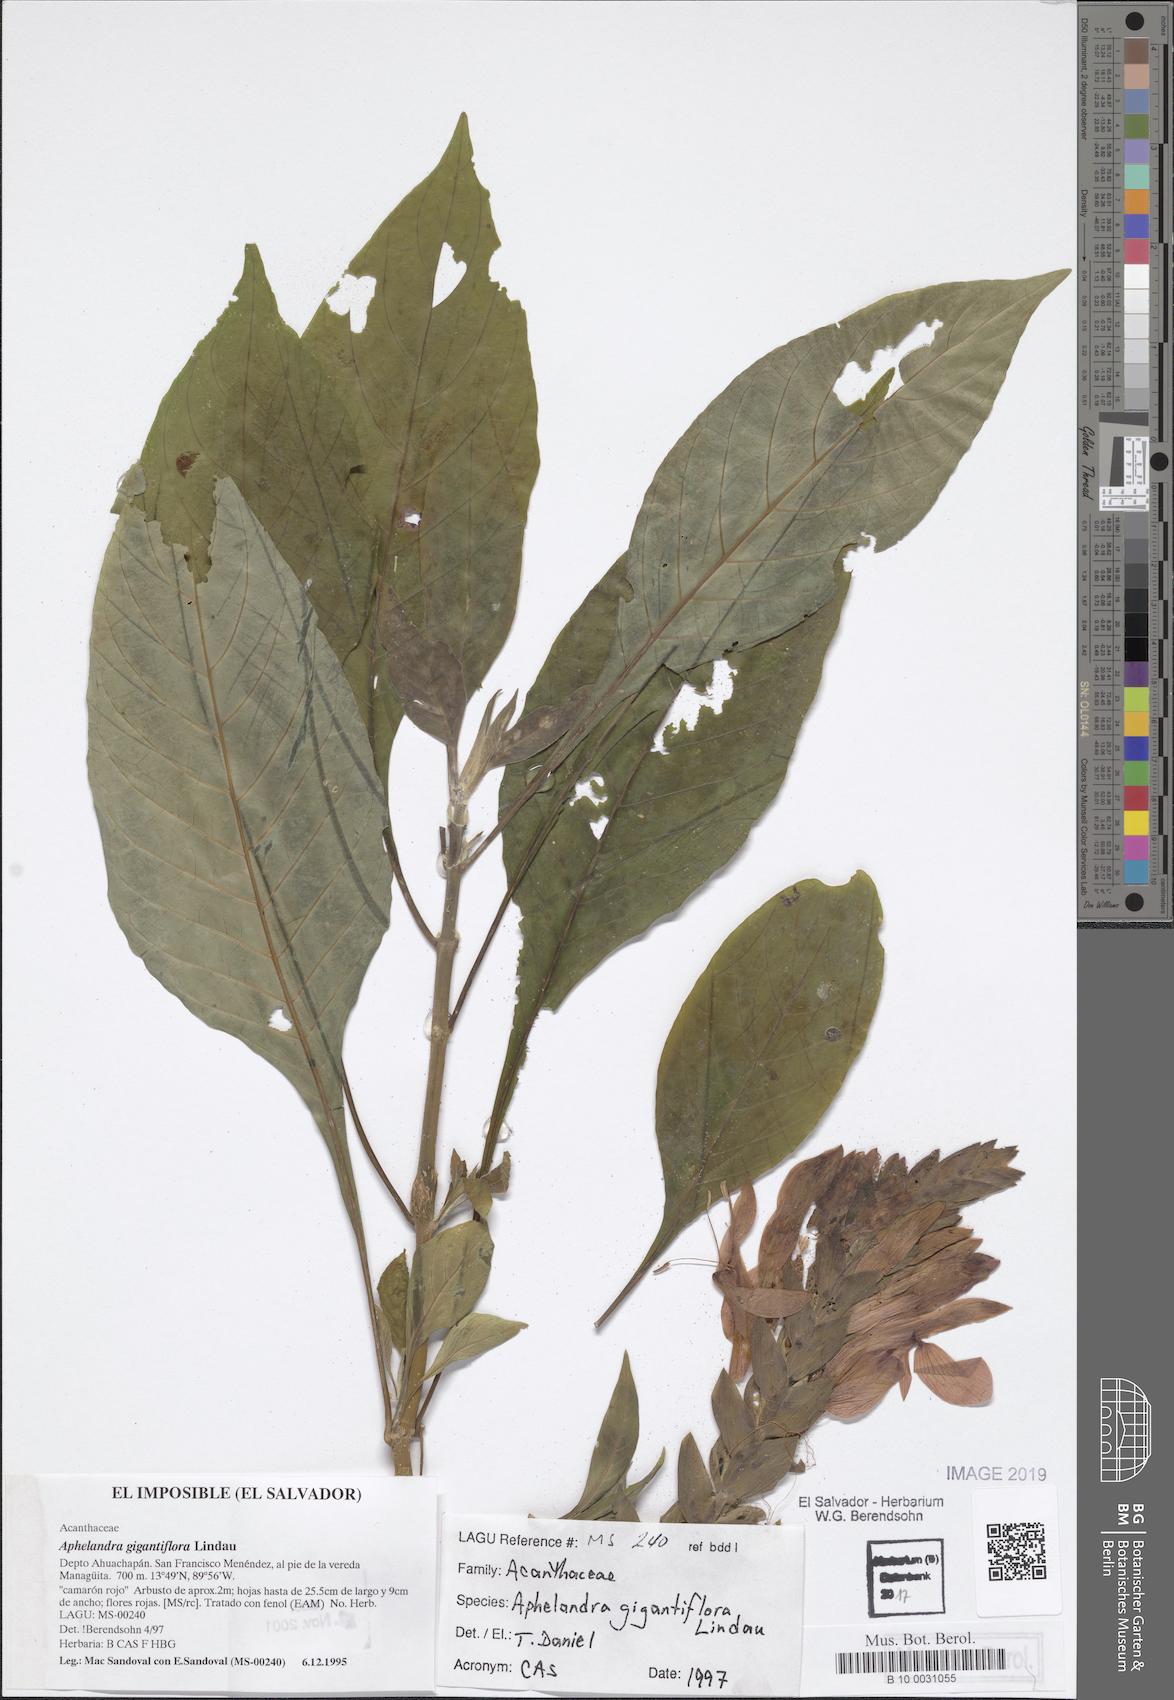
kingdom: Plantae
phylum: Tracheophyta
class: Magnoliopsida
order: Lamiales
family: Acanthaceae
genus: Aphelandra
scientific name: Aphelandra gigantiflora
